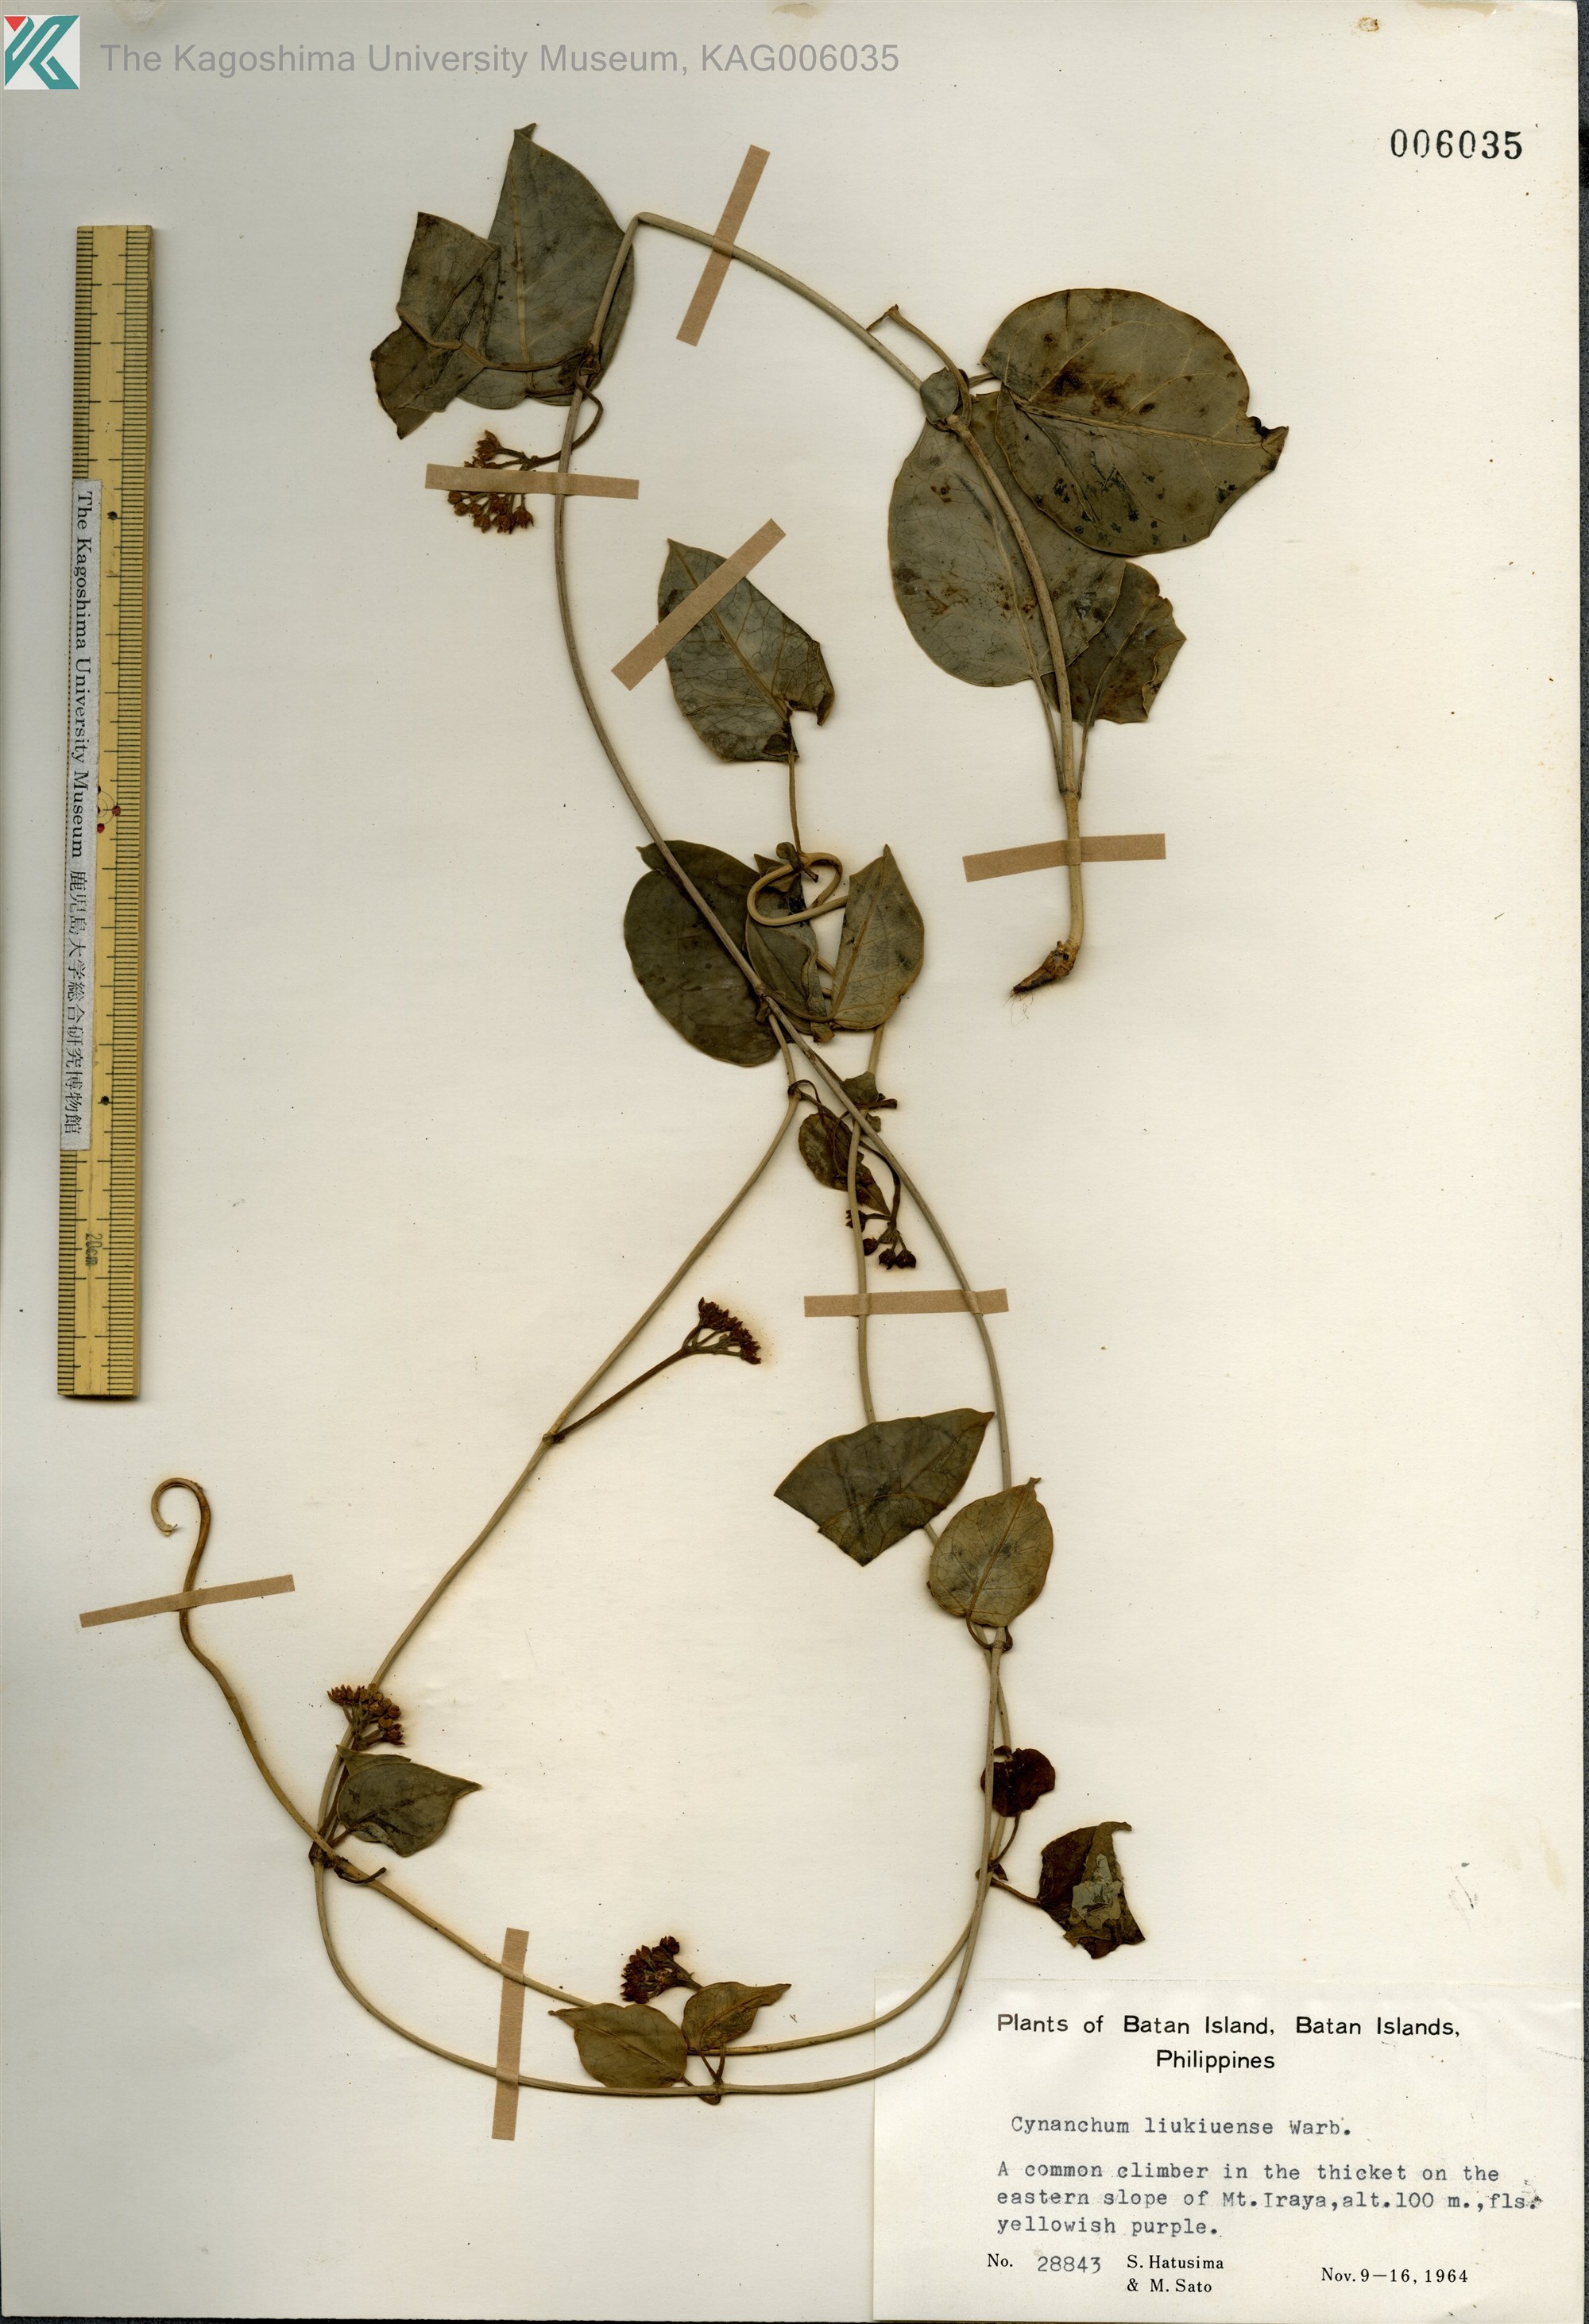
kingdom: Plantae
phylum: Tracheophyta
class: Magnoliopsida
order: Gentianales
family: Apocynaceae
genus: Cynanchum
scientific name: Cynanchum liukiuense
